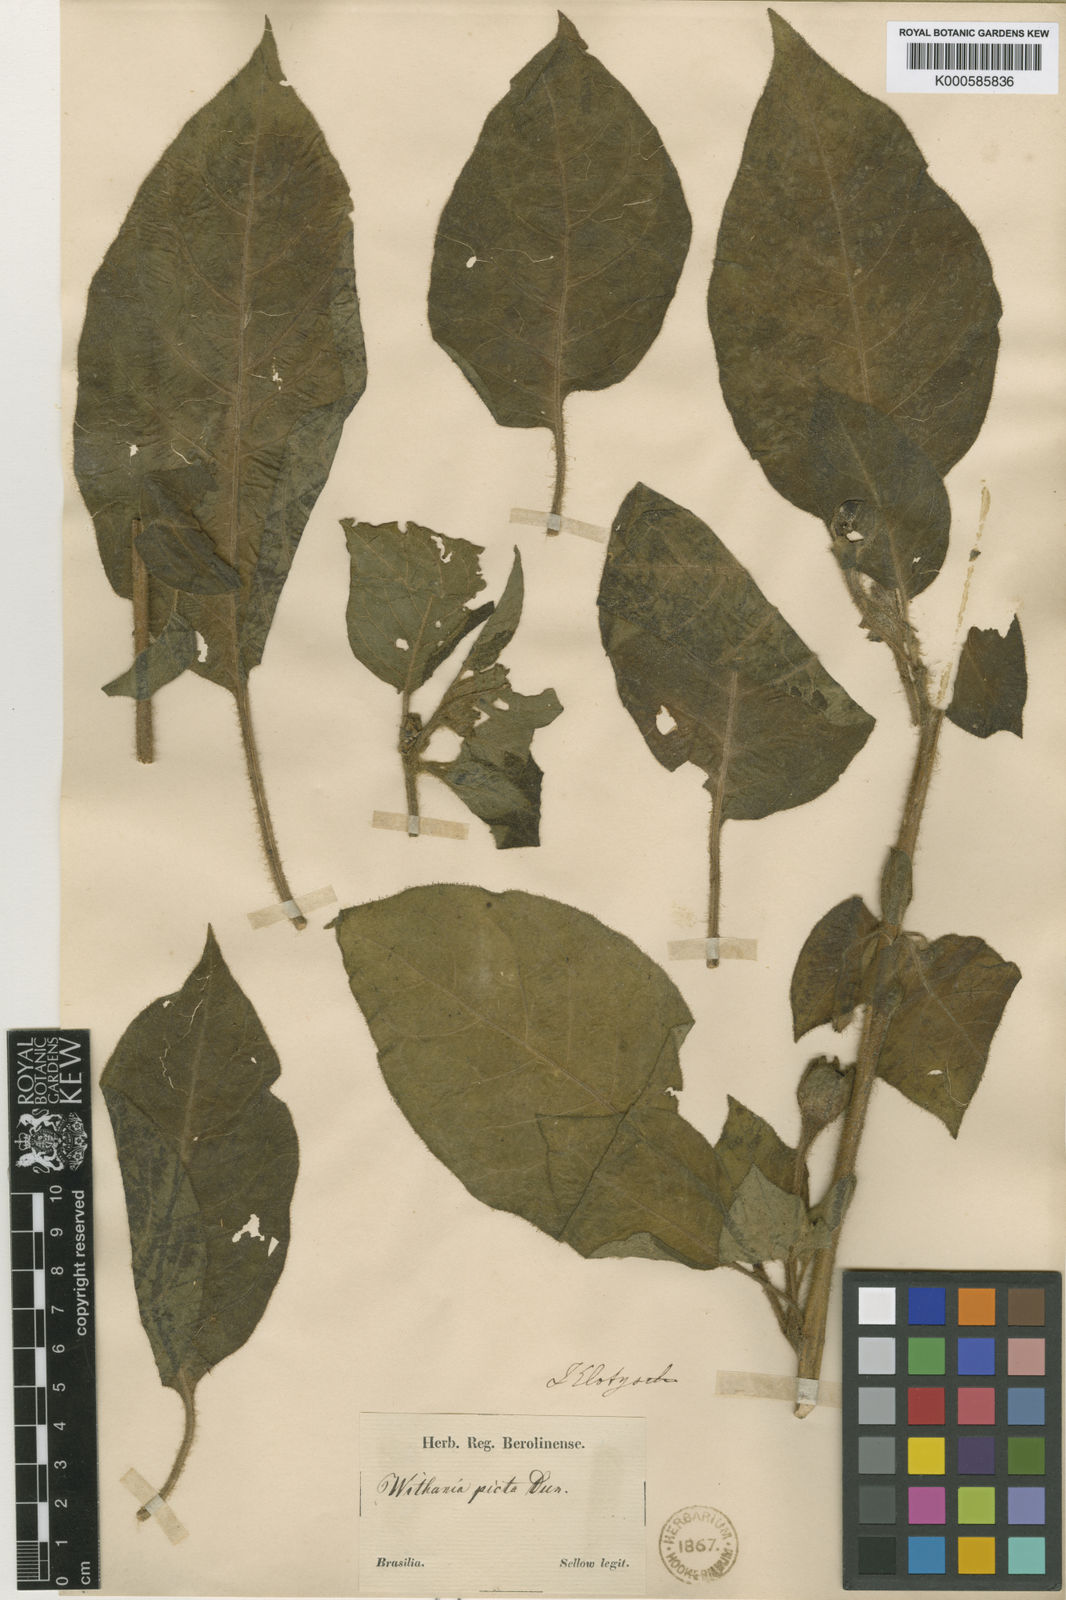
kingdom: Plantae
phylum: Tracheophyta
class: Magnoliopsida
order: Solanales
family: Solanaceae
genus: Athenaea
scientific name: Athenaea picta
